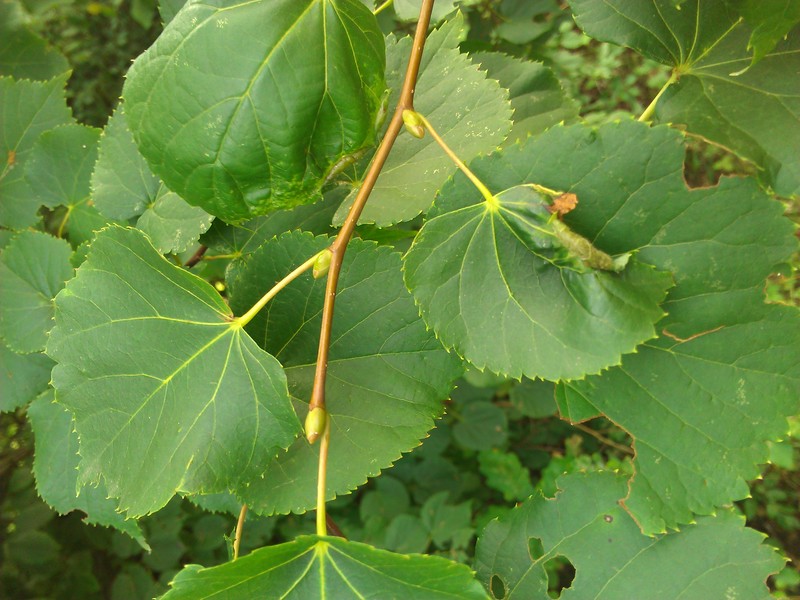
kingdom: Animalia
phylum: Arthropoda
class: Insecta
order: Lepidoptera
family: Gracillariidae
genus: Phyllonorycter
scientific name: Phyllonorycter
